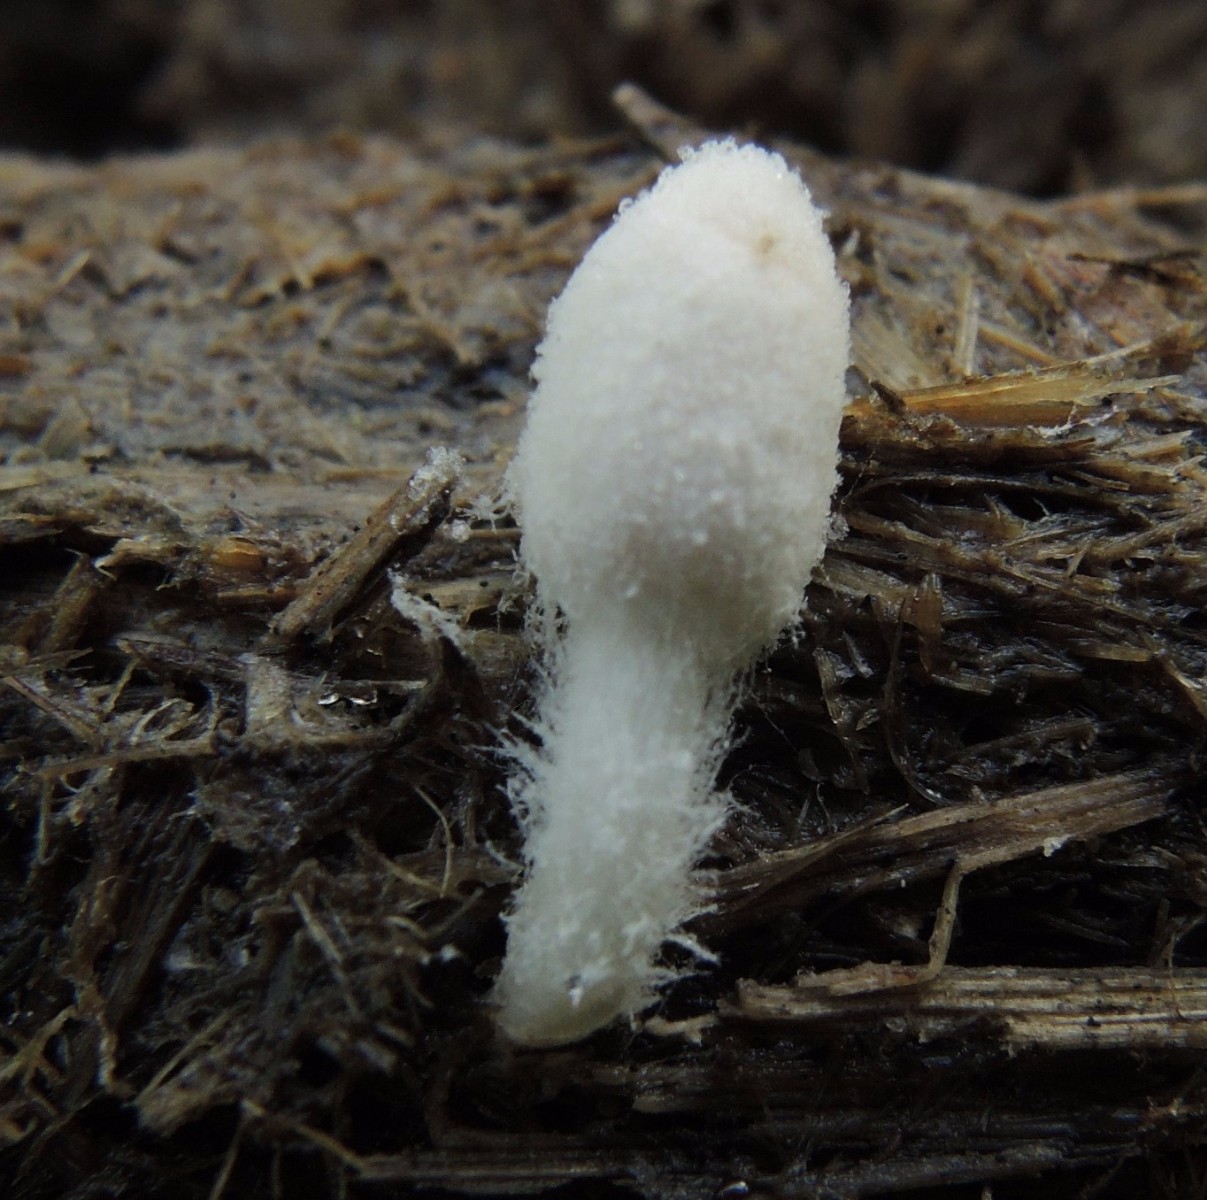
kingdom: Fungi
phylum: Basidiomycota
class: Agaricomycetes
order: Agaricales
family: Psathyrellaceae
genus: Coprinopsis
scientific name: Coprinopsis nivea
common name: snehvid blækhat
